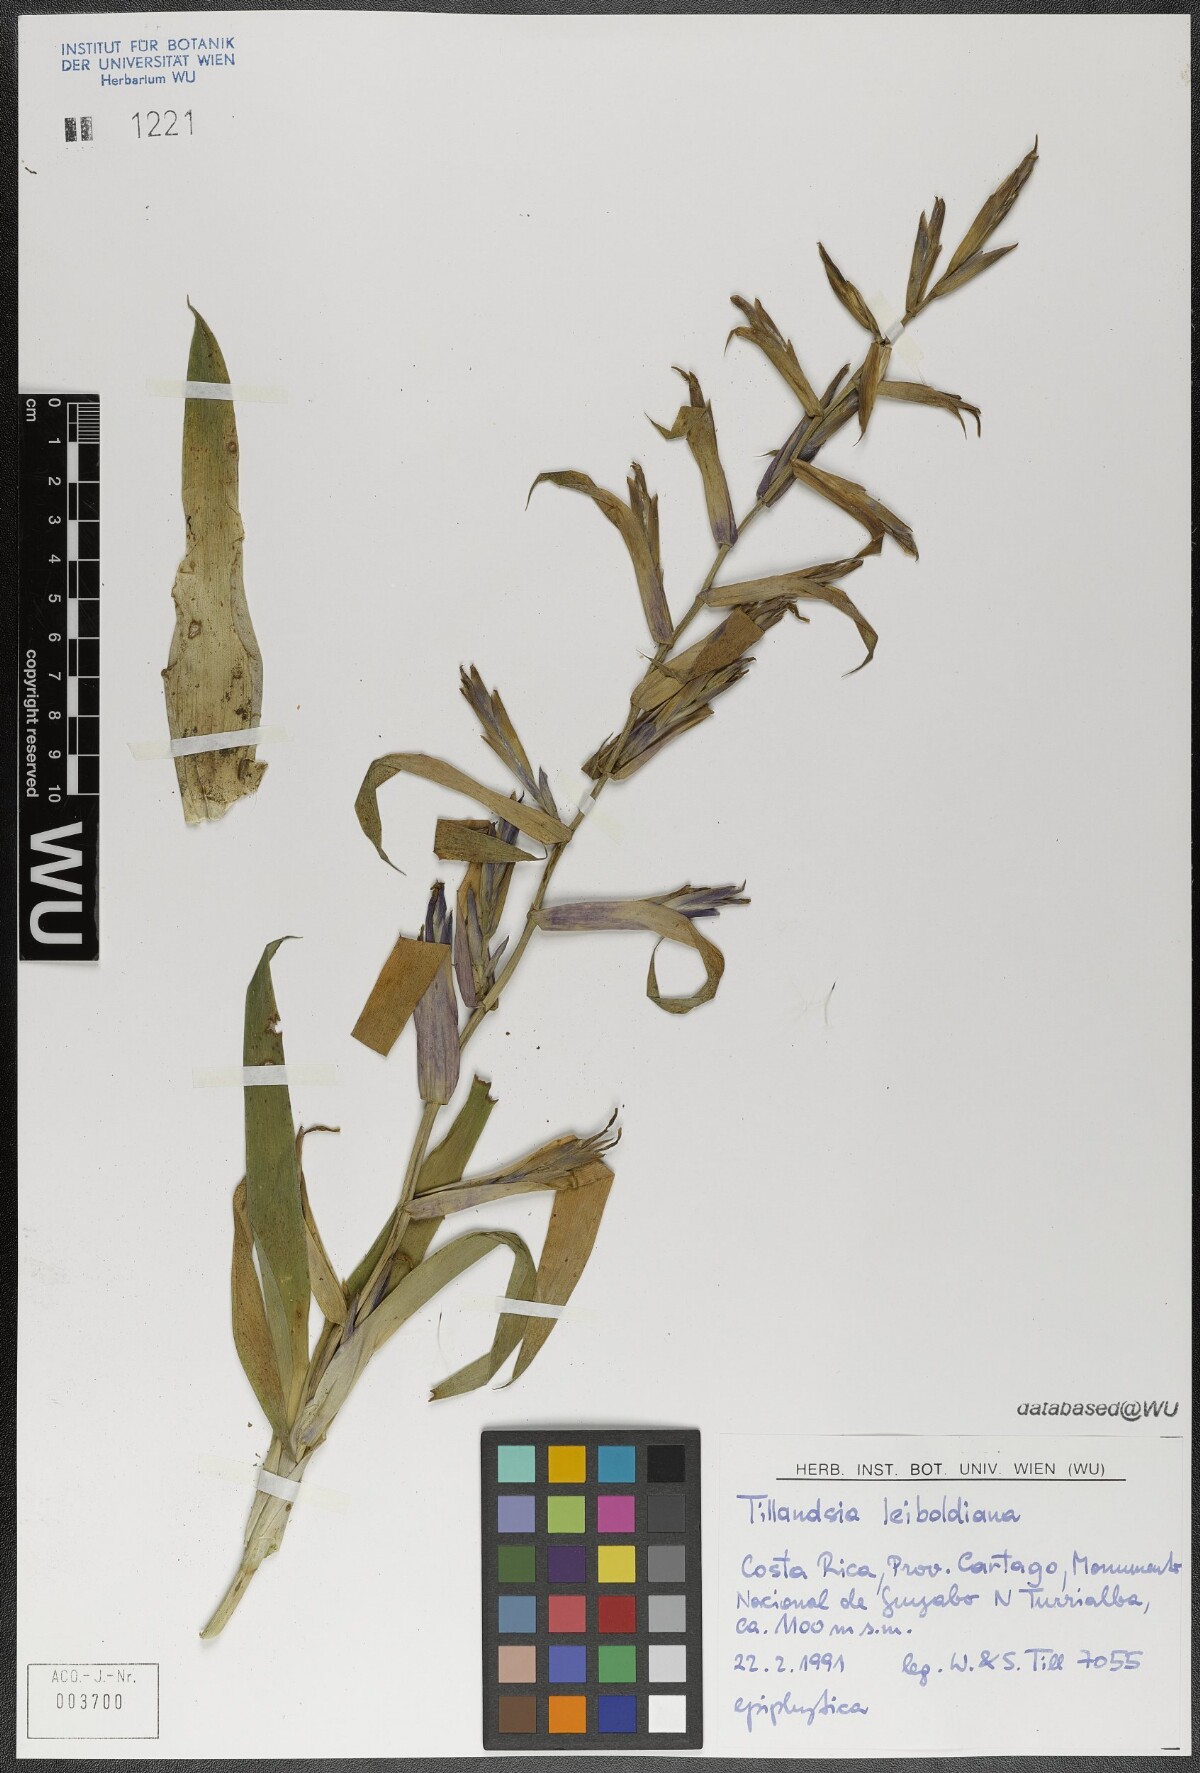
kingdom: Plantae
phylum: Tracheophyta
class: Liliopsida
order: Poales
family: Bromeliaceae
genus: Tillandsia
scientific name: Tillandsia leiboldiana
